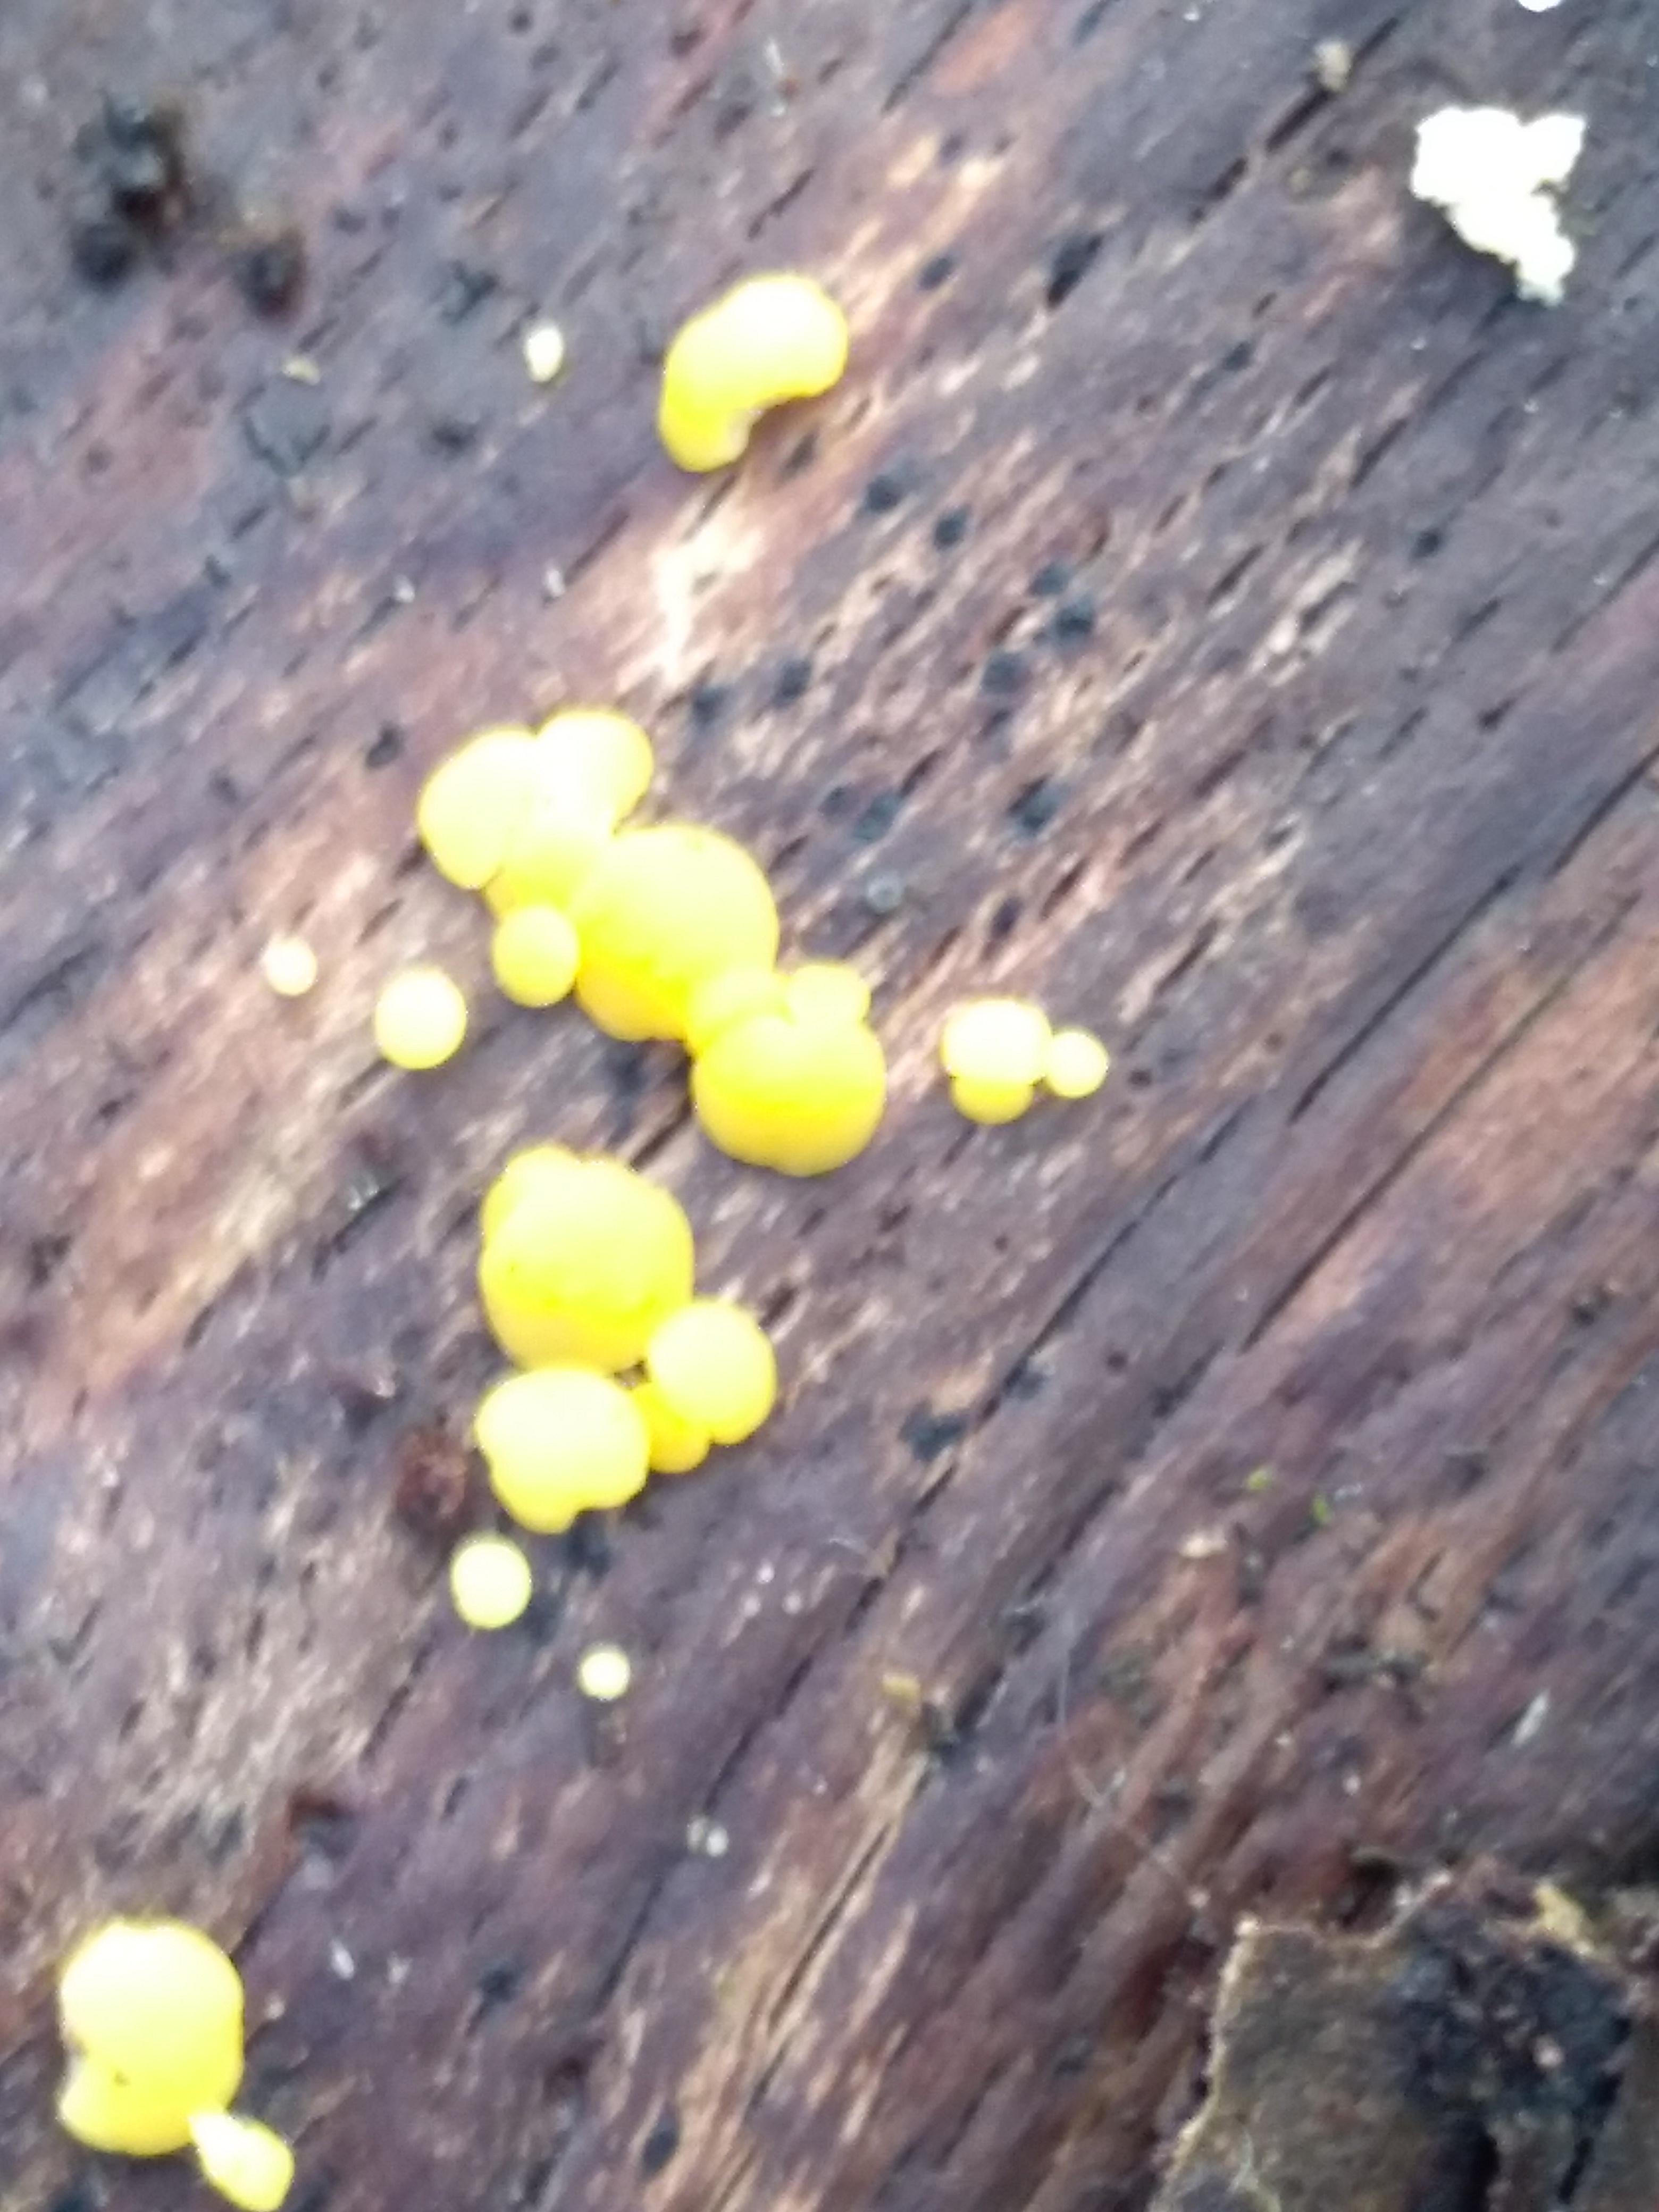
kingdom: Fungi
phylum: Ascomycota
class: Leotiomycetes
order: Helotiales
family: Pezizellaceae
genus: Calycina
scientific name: Calycina citrina
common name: almindelig gulskive
